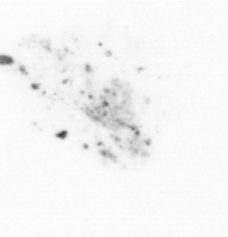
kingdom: Chromista
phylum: Ochrophyta
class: Bacillariophyceae
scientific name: Bacillariophyceae
